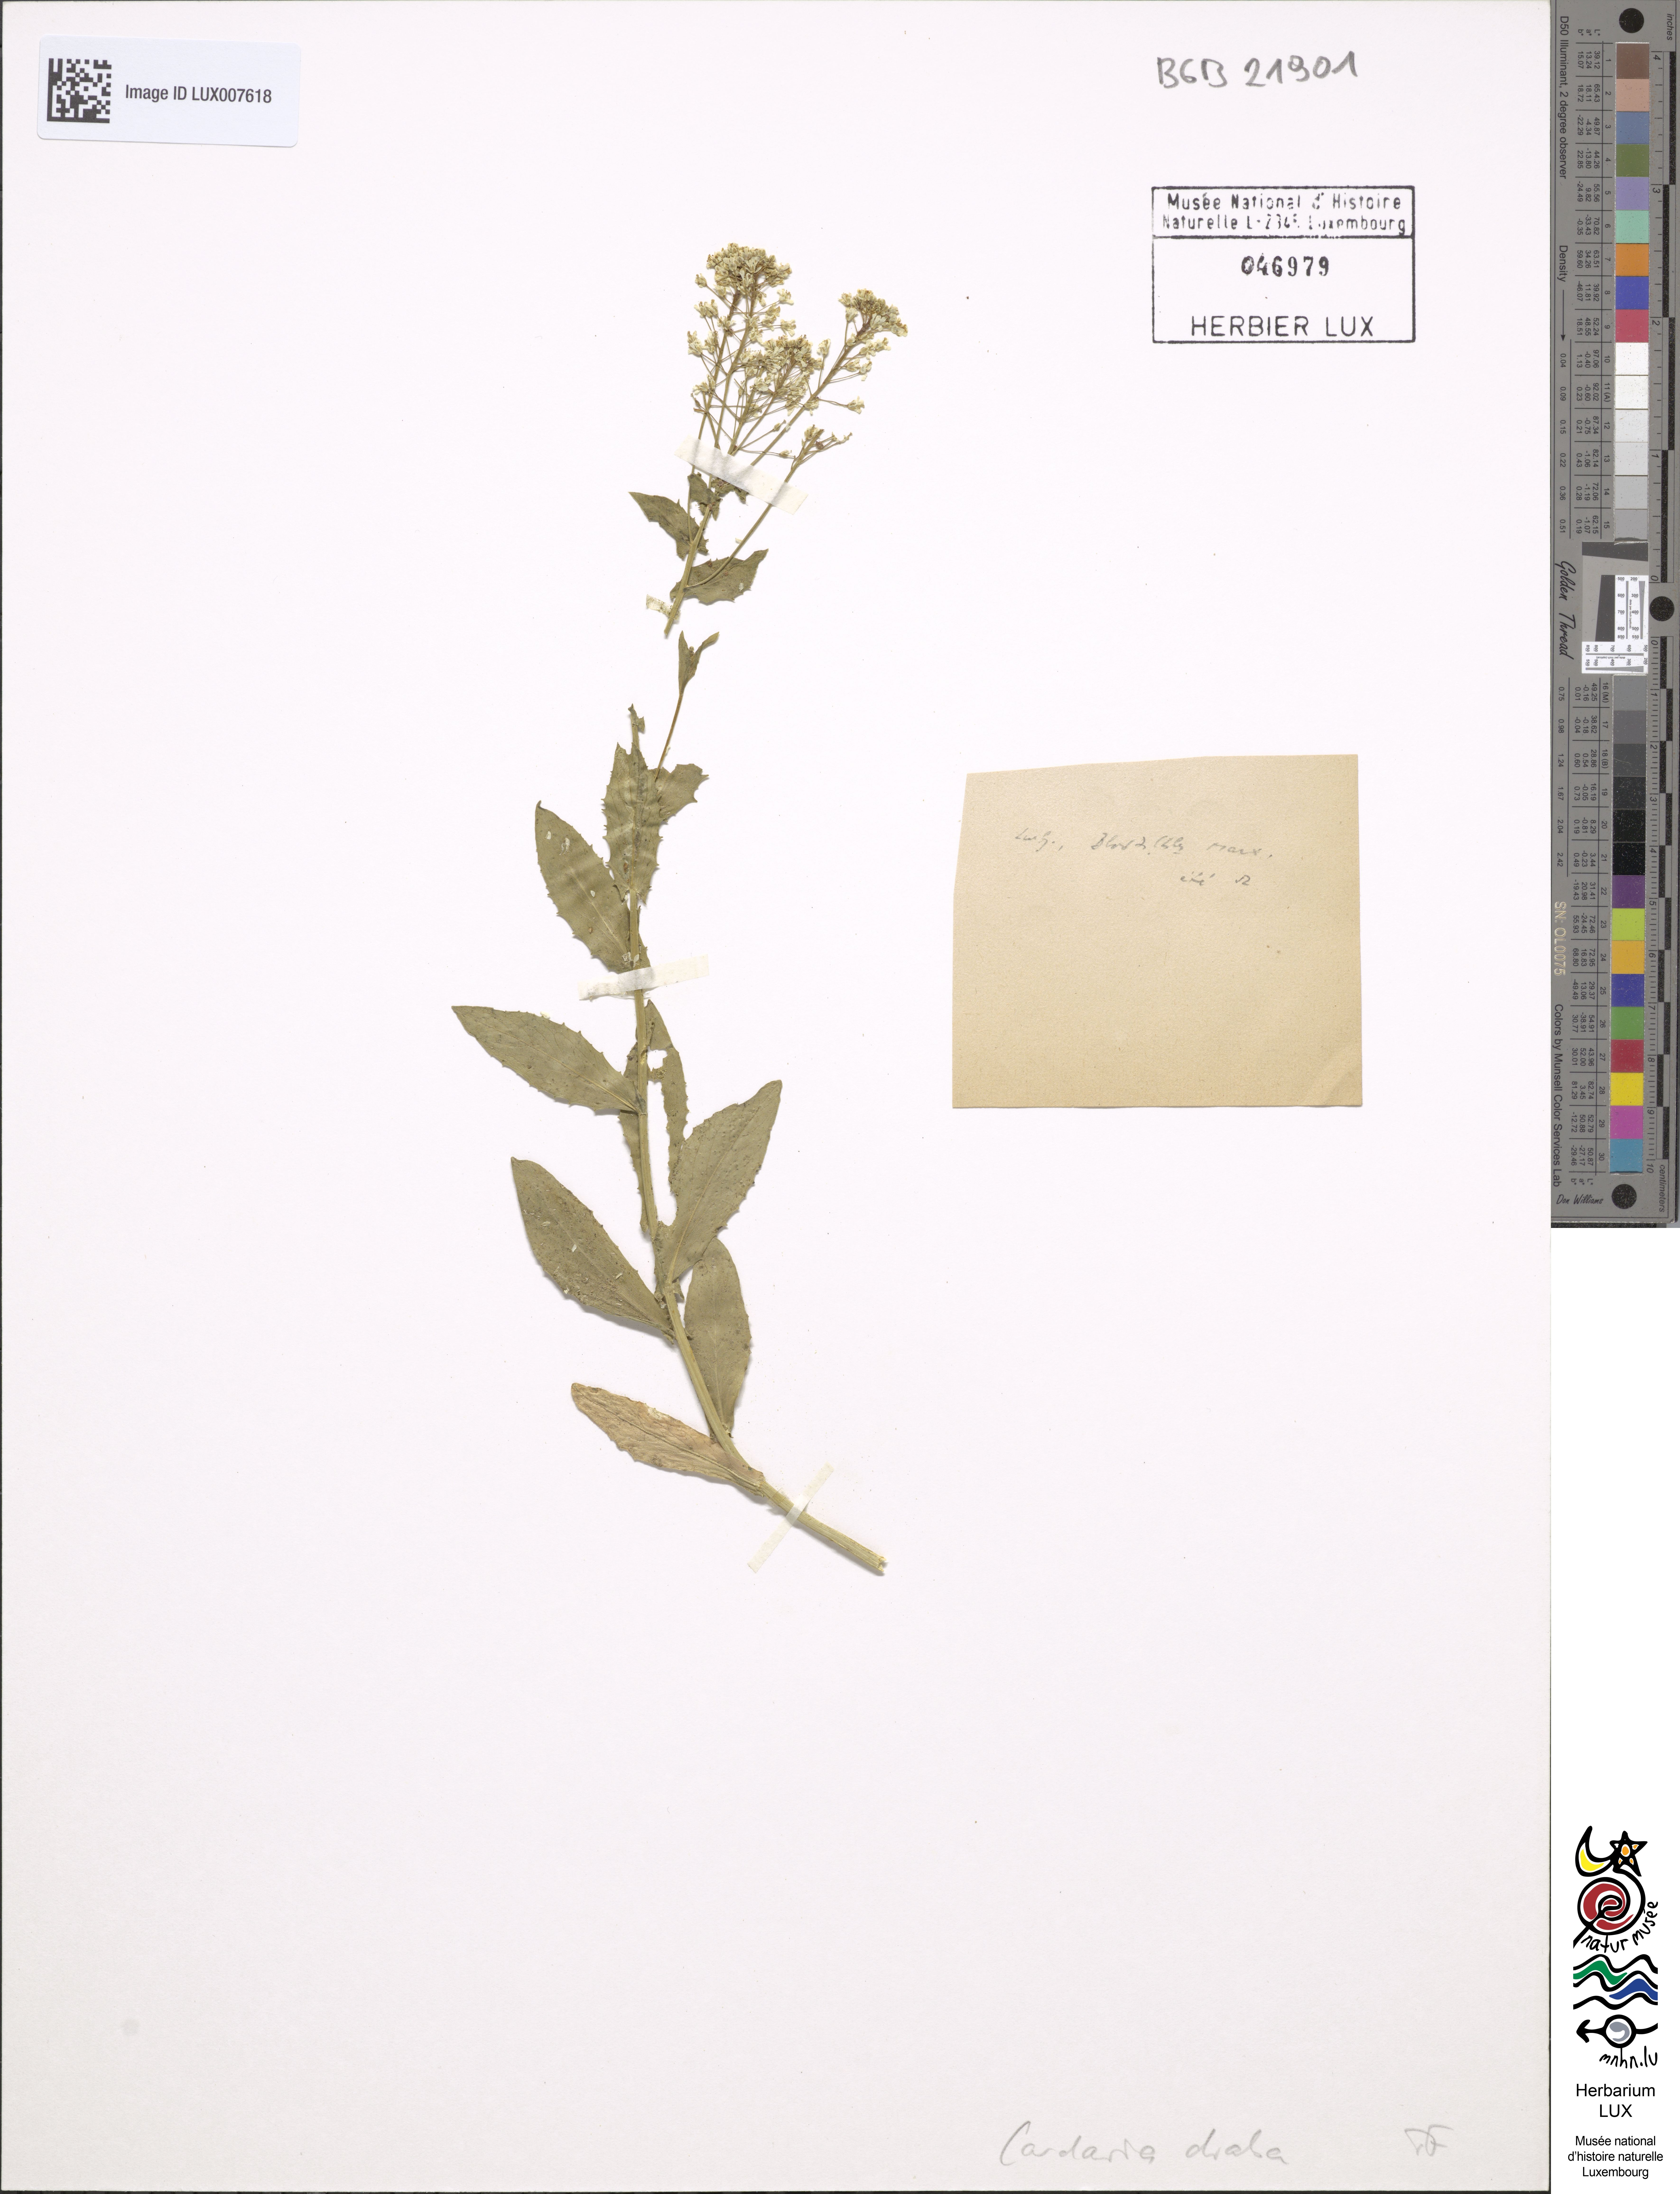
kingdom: Plantae
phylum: Tracheophyta
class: Magnoliopsida
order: Brassicales
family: Brassicaceae
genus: Lepidium
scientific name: Lepidium draba
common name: Hoary cress
